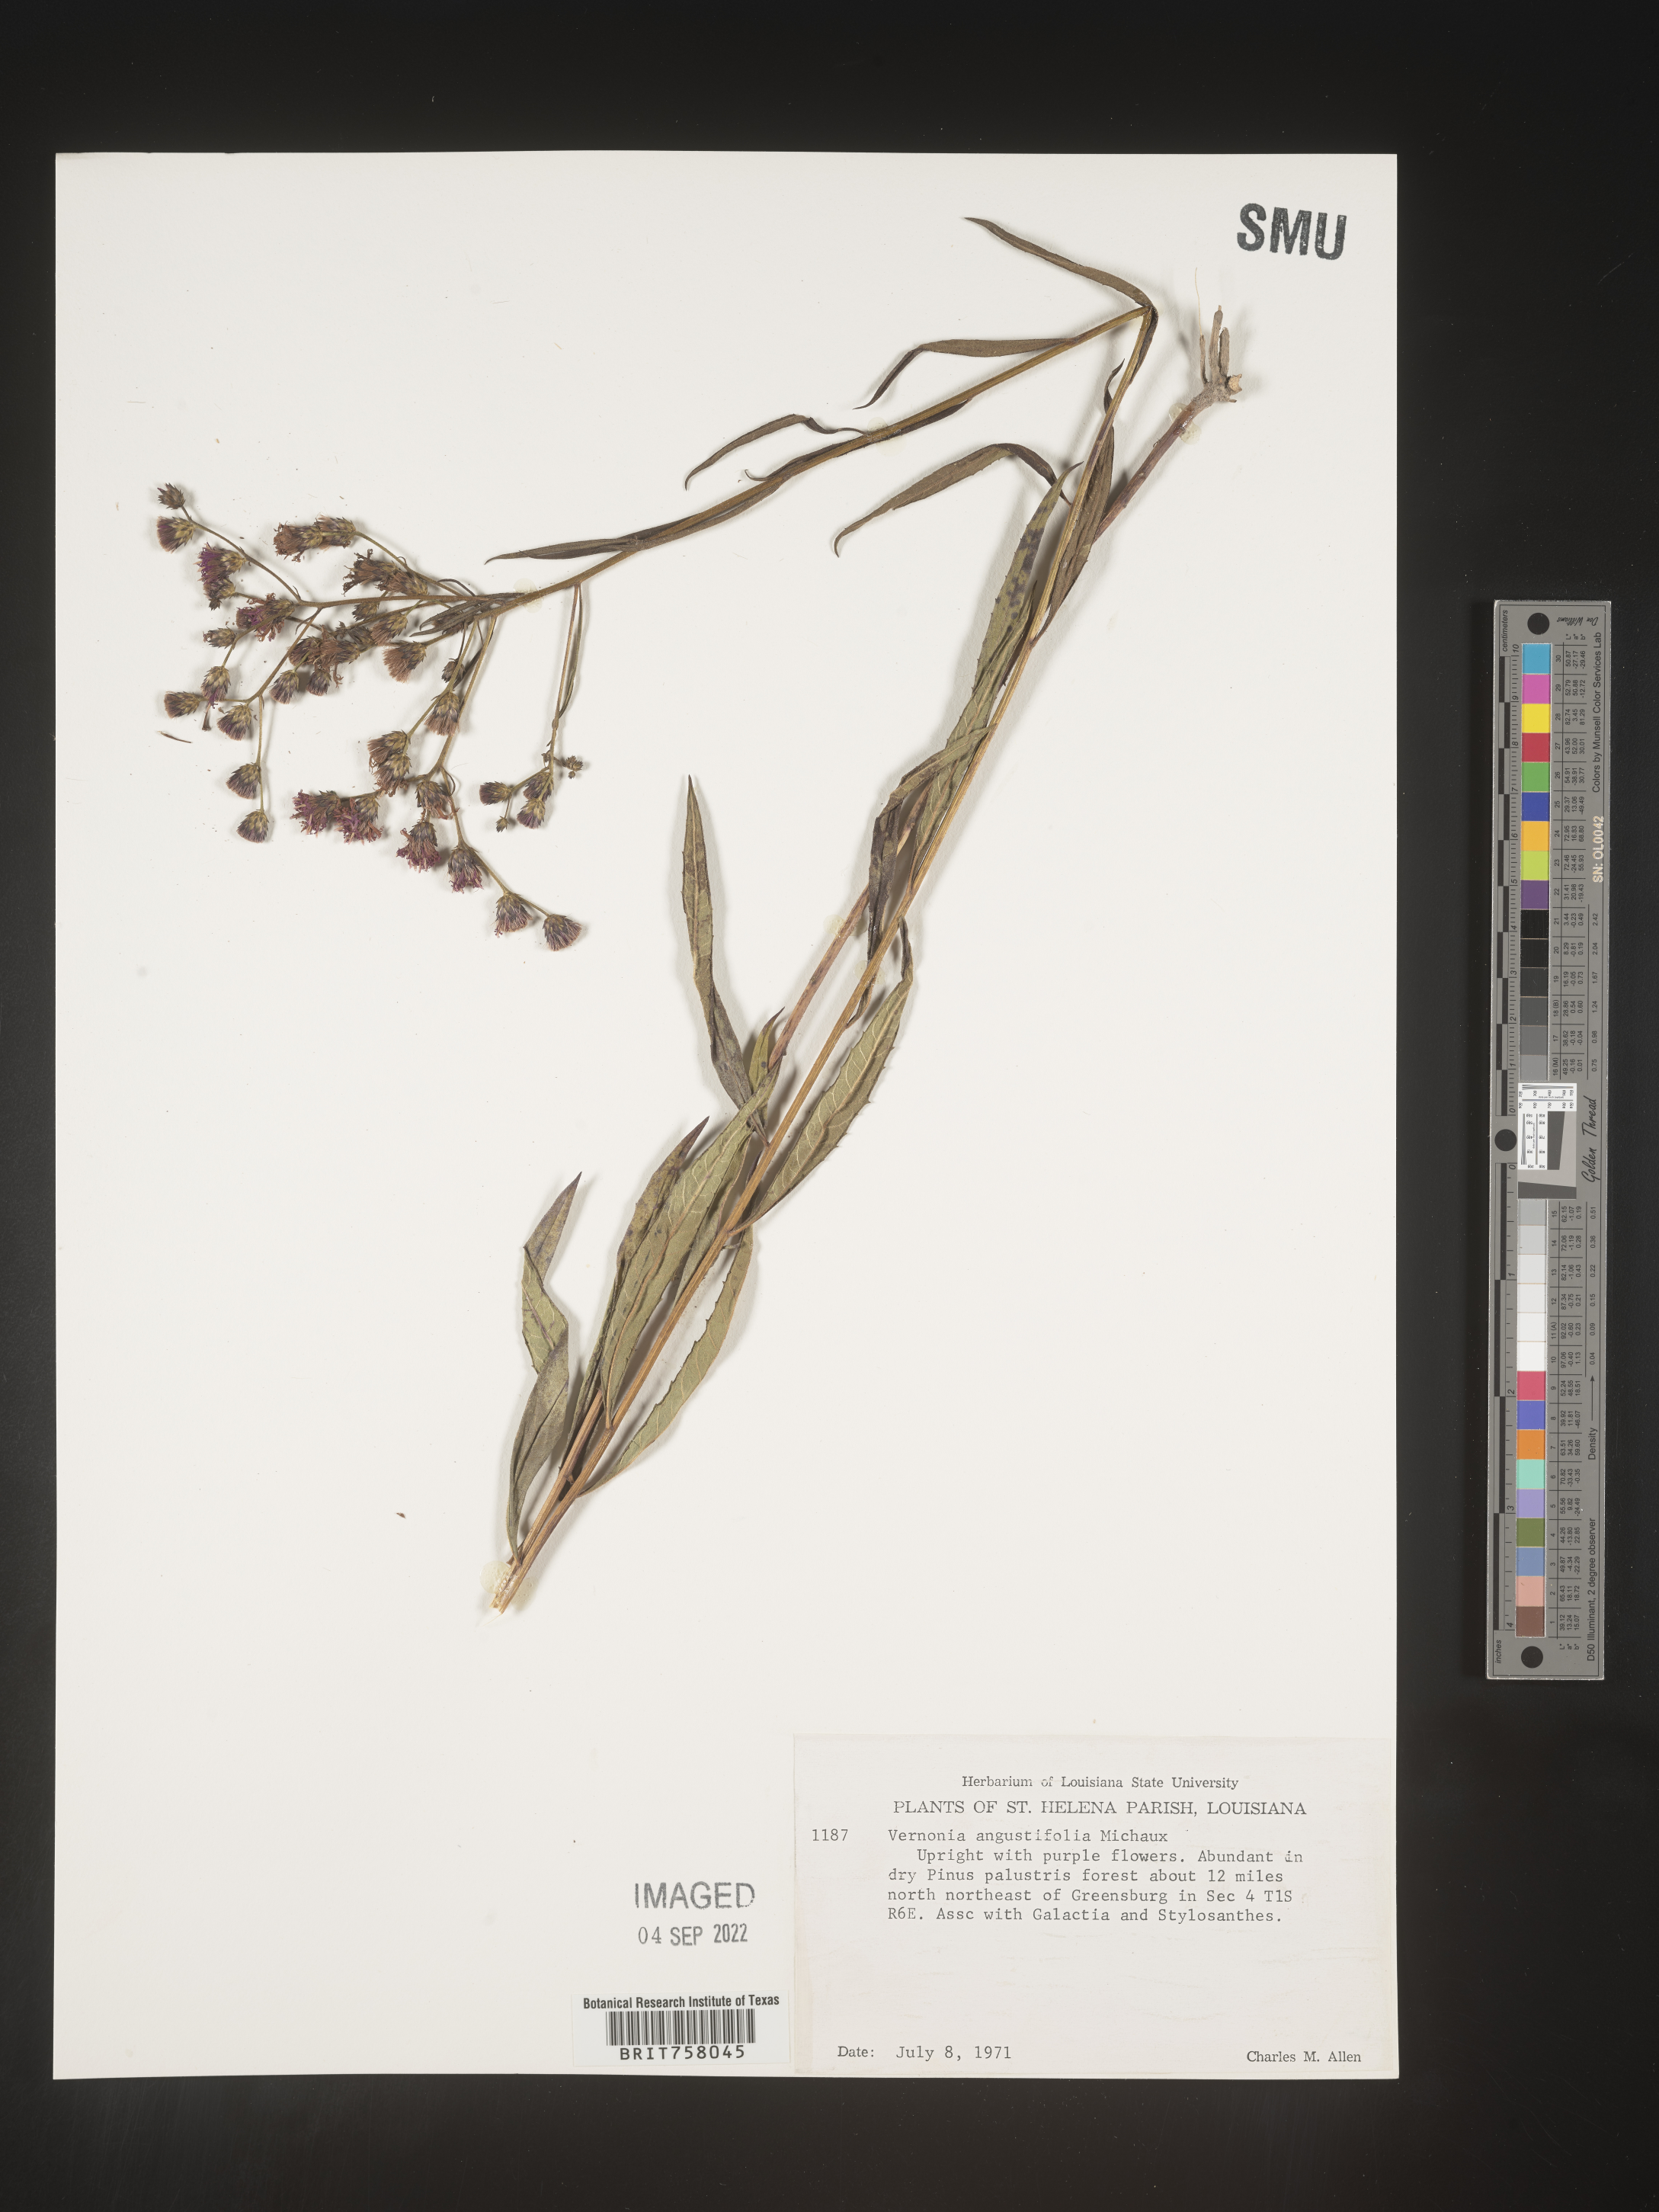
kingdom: Plantae
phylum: Tracheophyta
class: Magnoliopsida
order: Asterales
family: Asteraceae
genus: Vernonia
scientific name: Vernonia angustifolia
